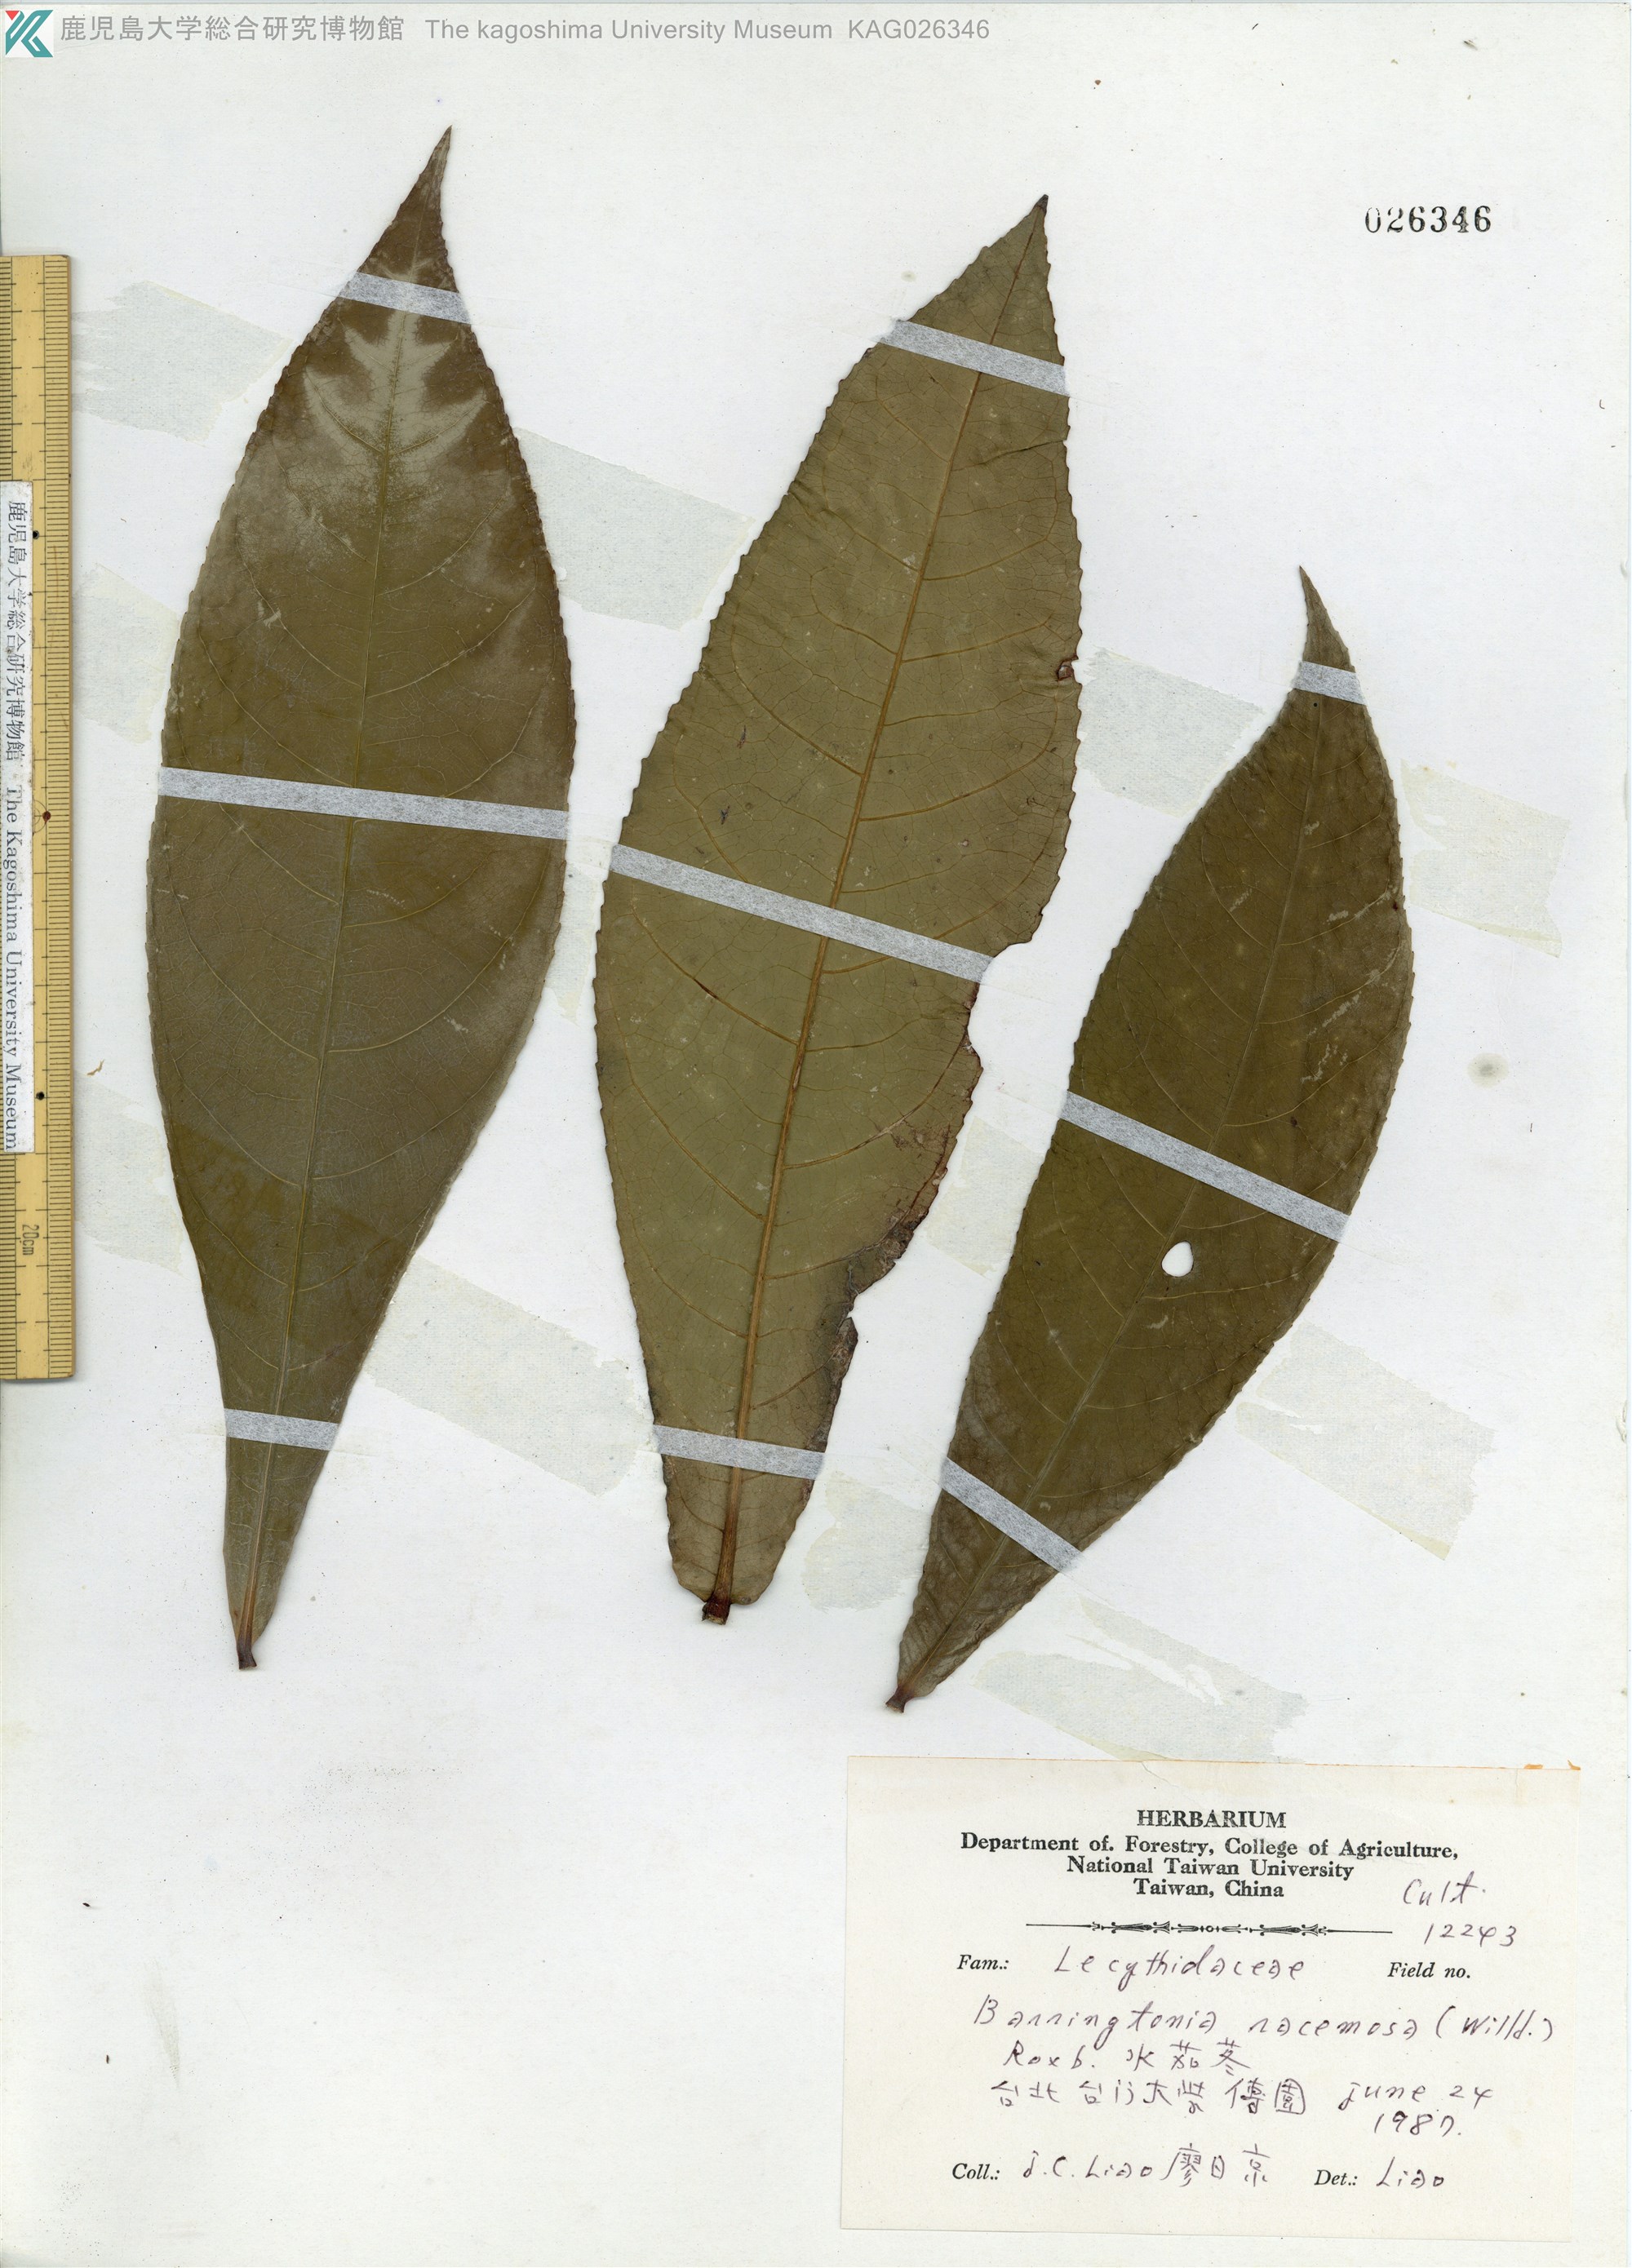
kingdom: Plantae
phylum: Tracheophyta
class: Magnoliopsida
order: Ericales
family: Lecythidaceae
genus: Barringtonia
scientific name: Barringtonia racemosa
